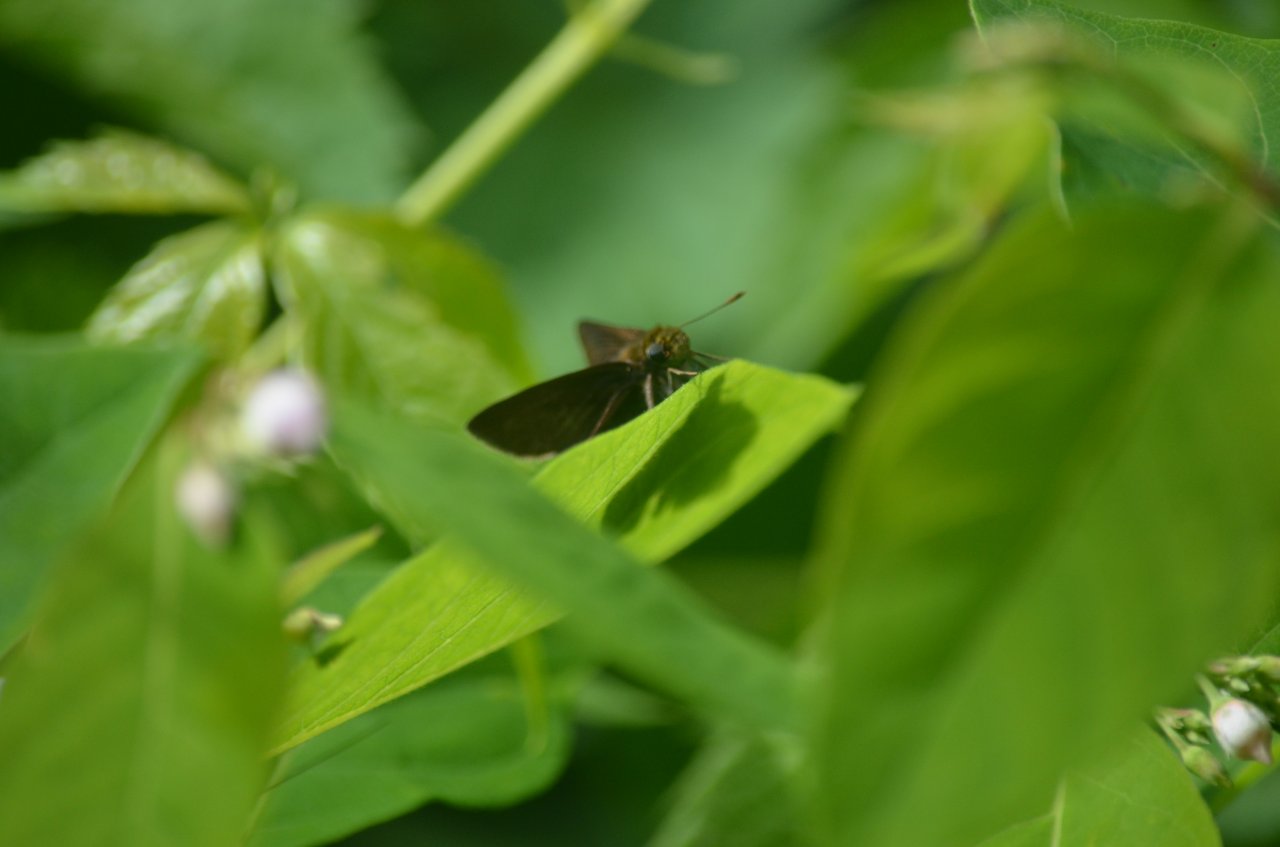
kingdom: Animalia
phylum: Arthropoda
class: Insecta
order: Lepidoptera
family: Hesperiidae
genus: Euphyes
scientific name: Euphyes vestris
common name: Dun Skipper
